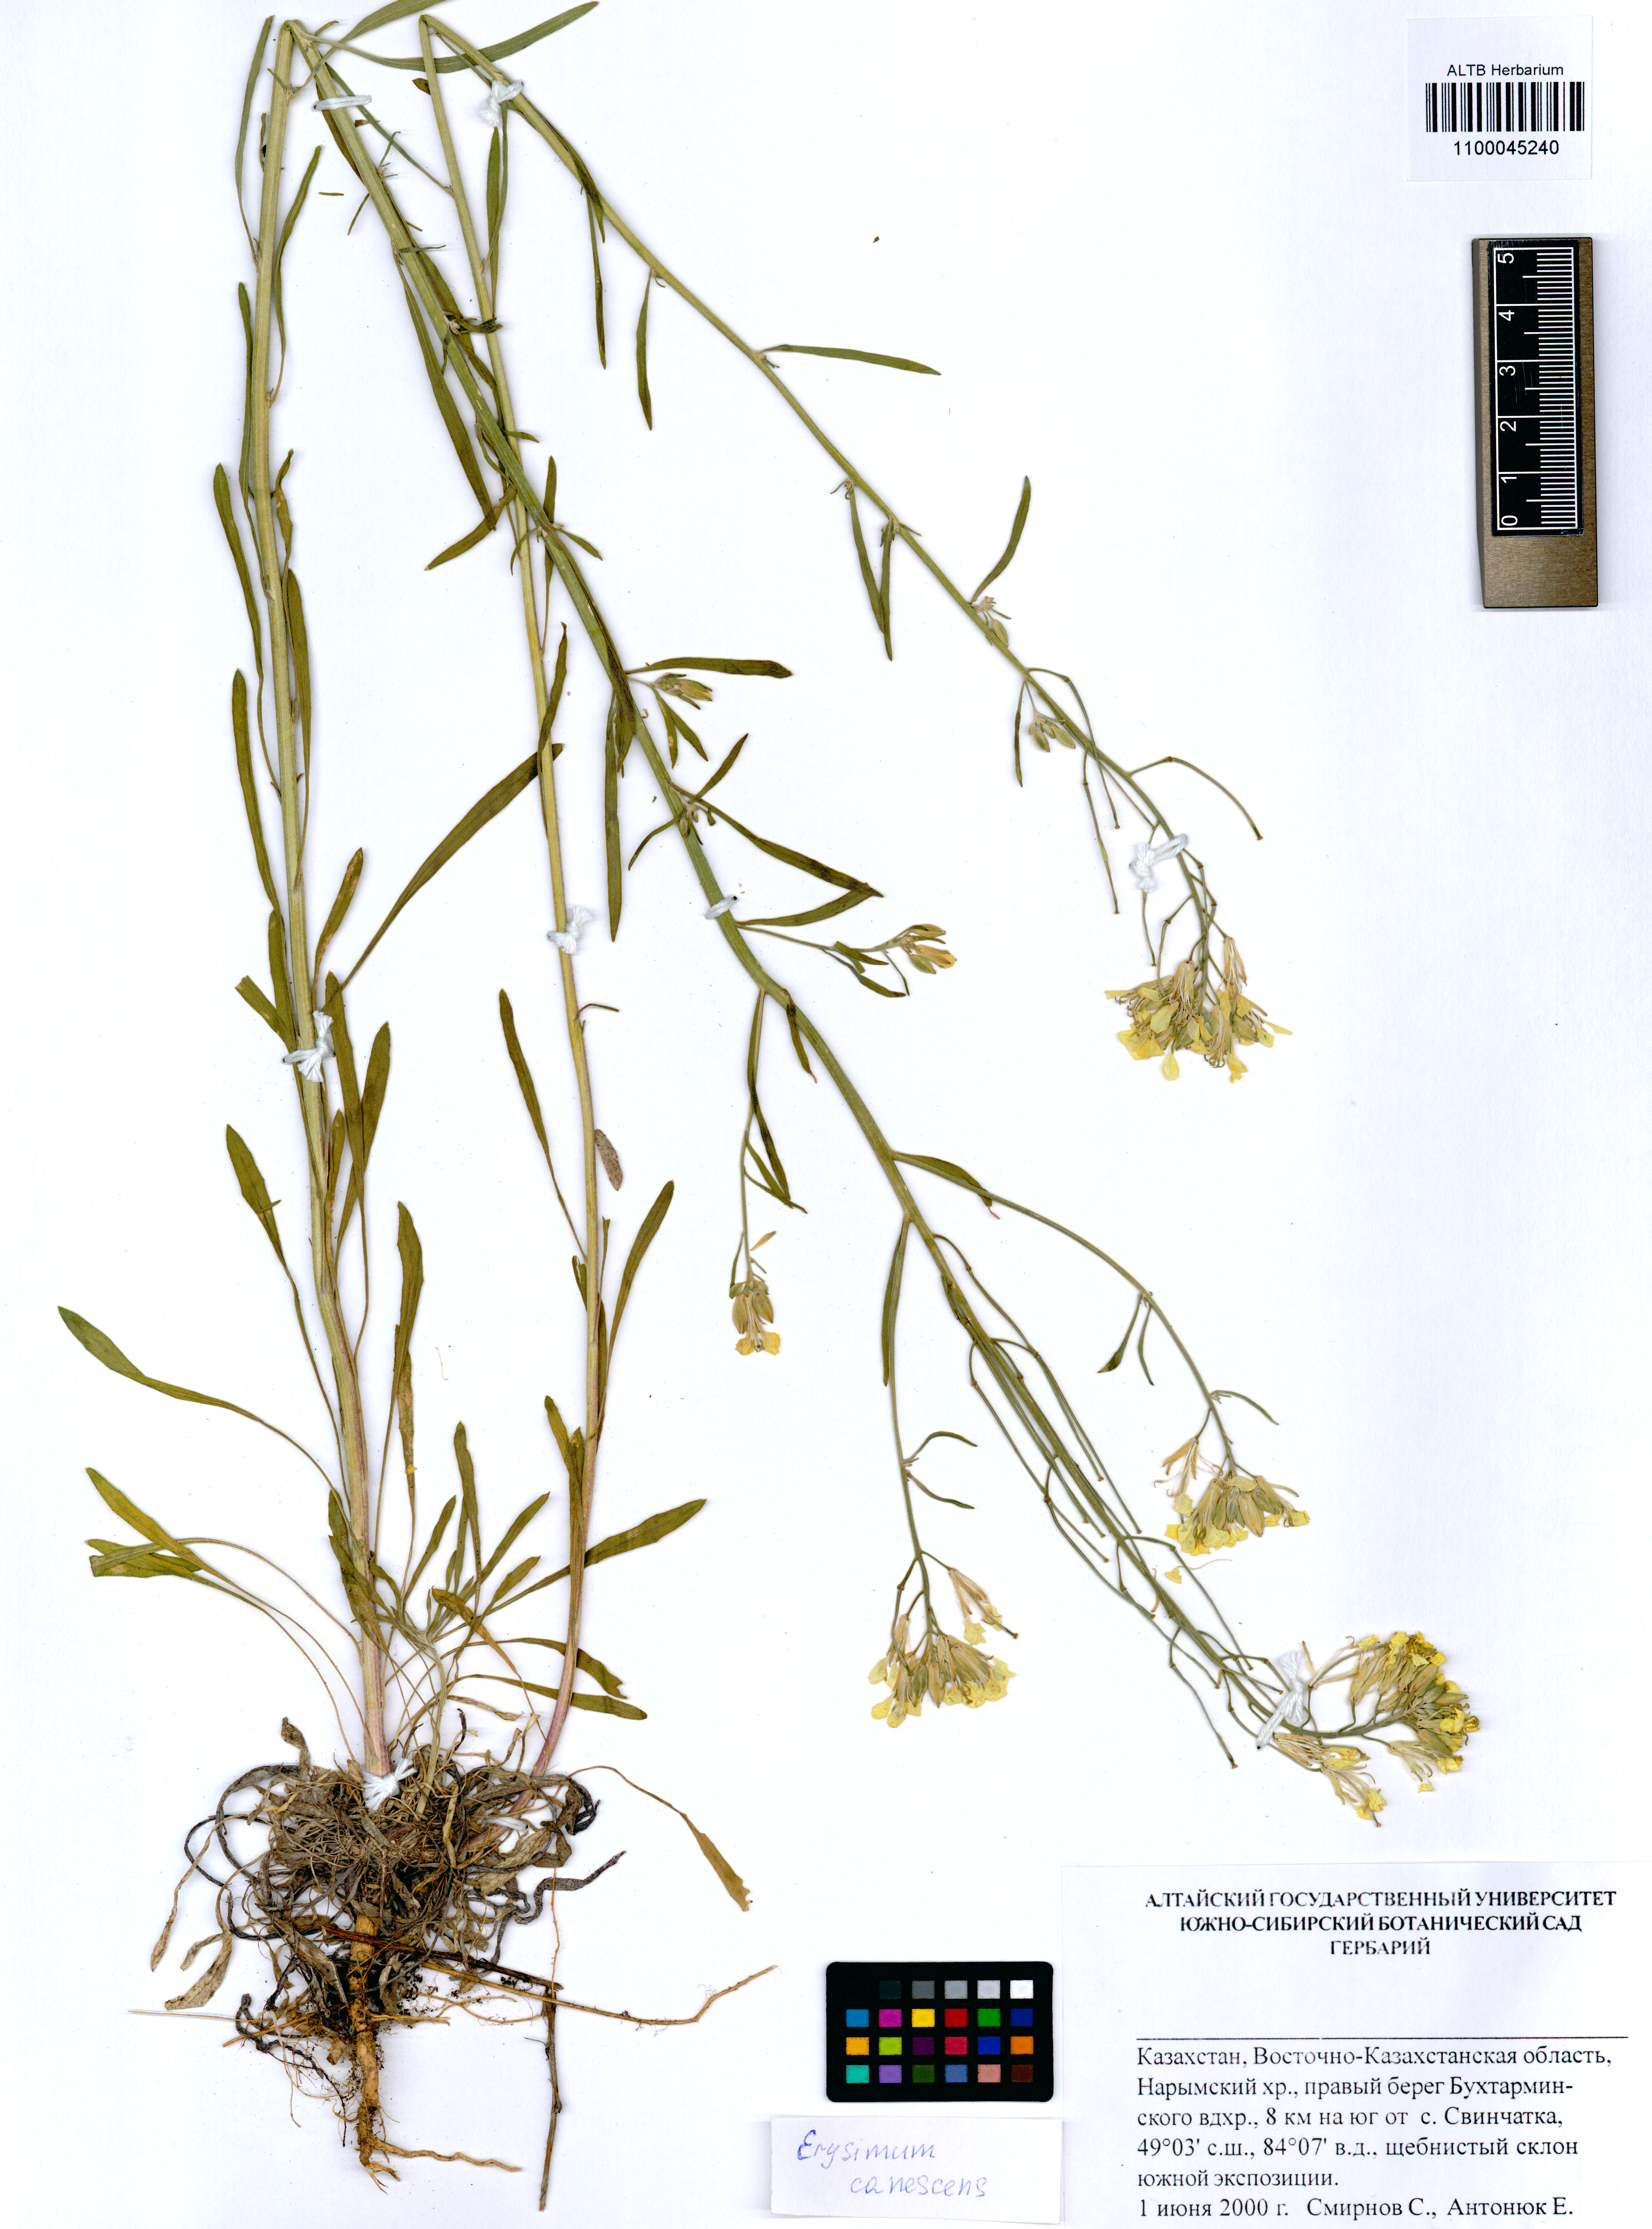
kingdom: Plantae
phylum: Tracheophyta
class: Magnoliopsida
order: Brassicales
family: Brassicaceae
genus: Erysimum
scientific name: Erysimum canescens
